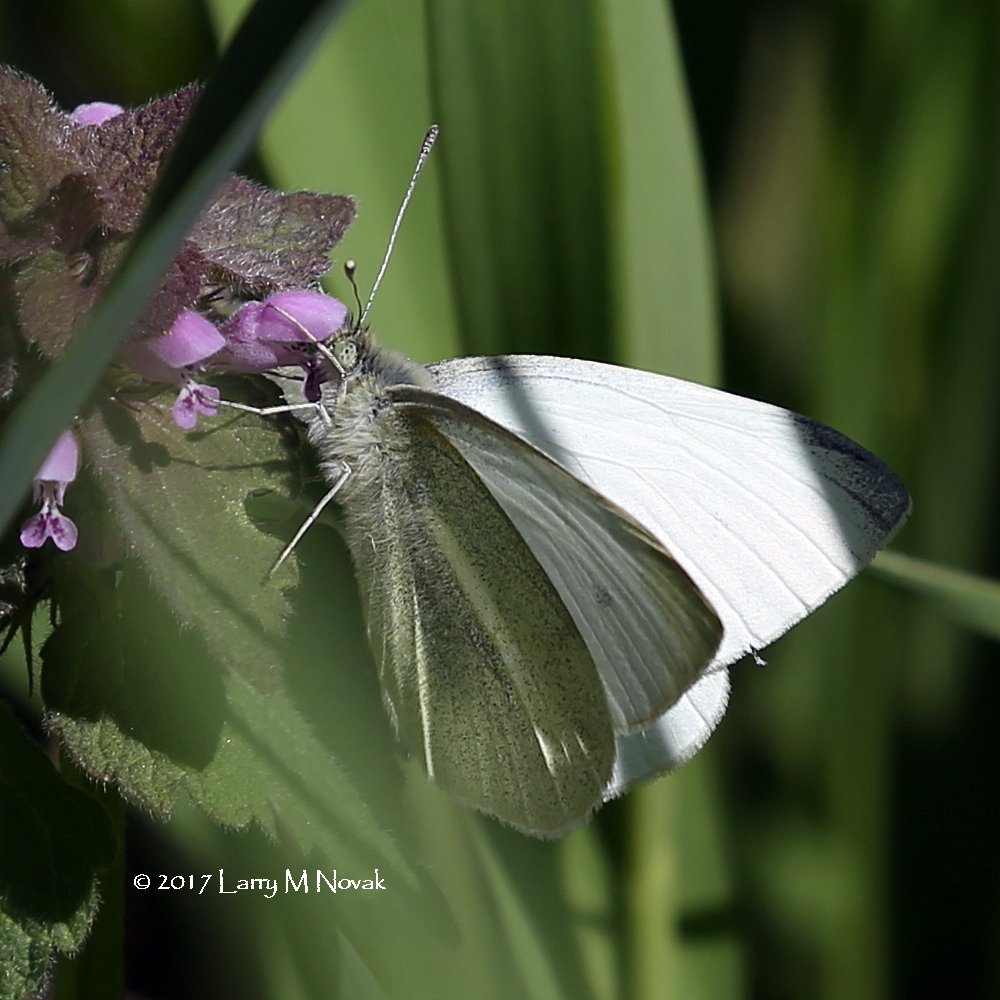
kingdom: Animalia
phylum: Arthropoda
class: Insecta
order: Lepidoptera
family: Pieridae
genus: Pieris
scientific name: Pieris rapae
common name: Cabbage White
